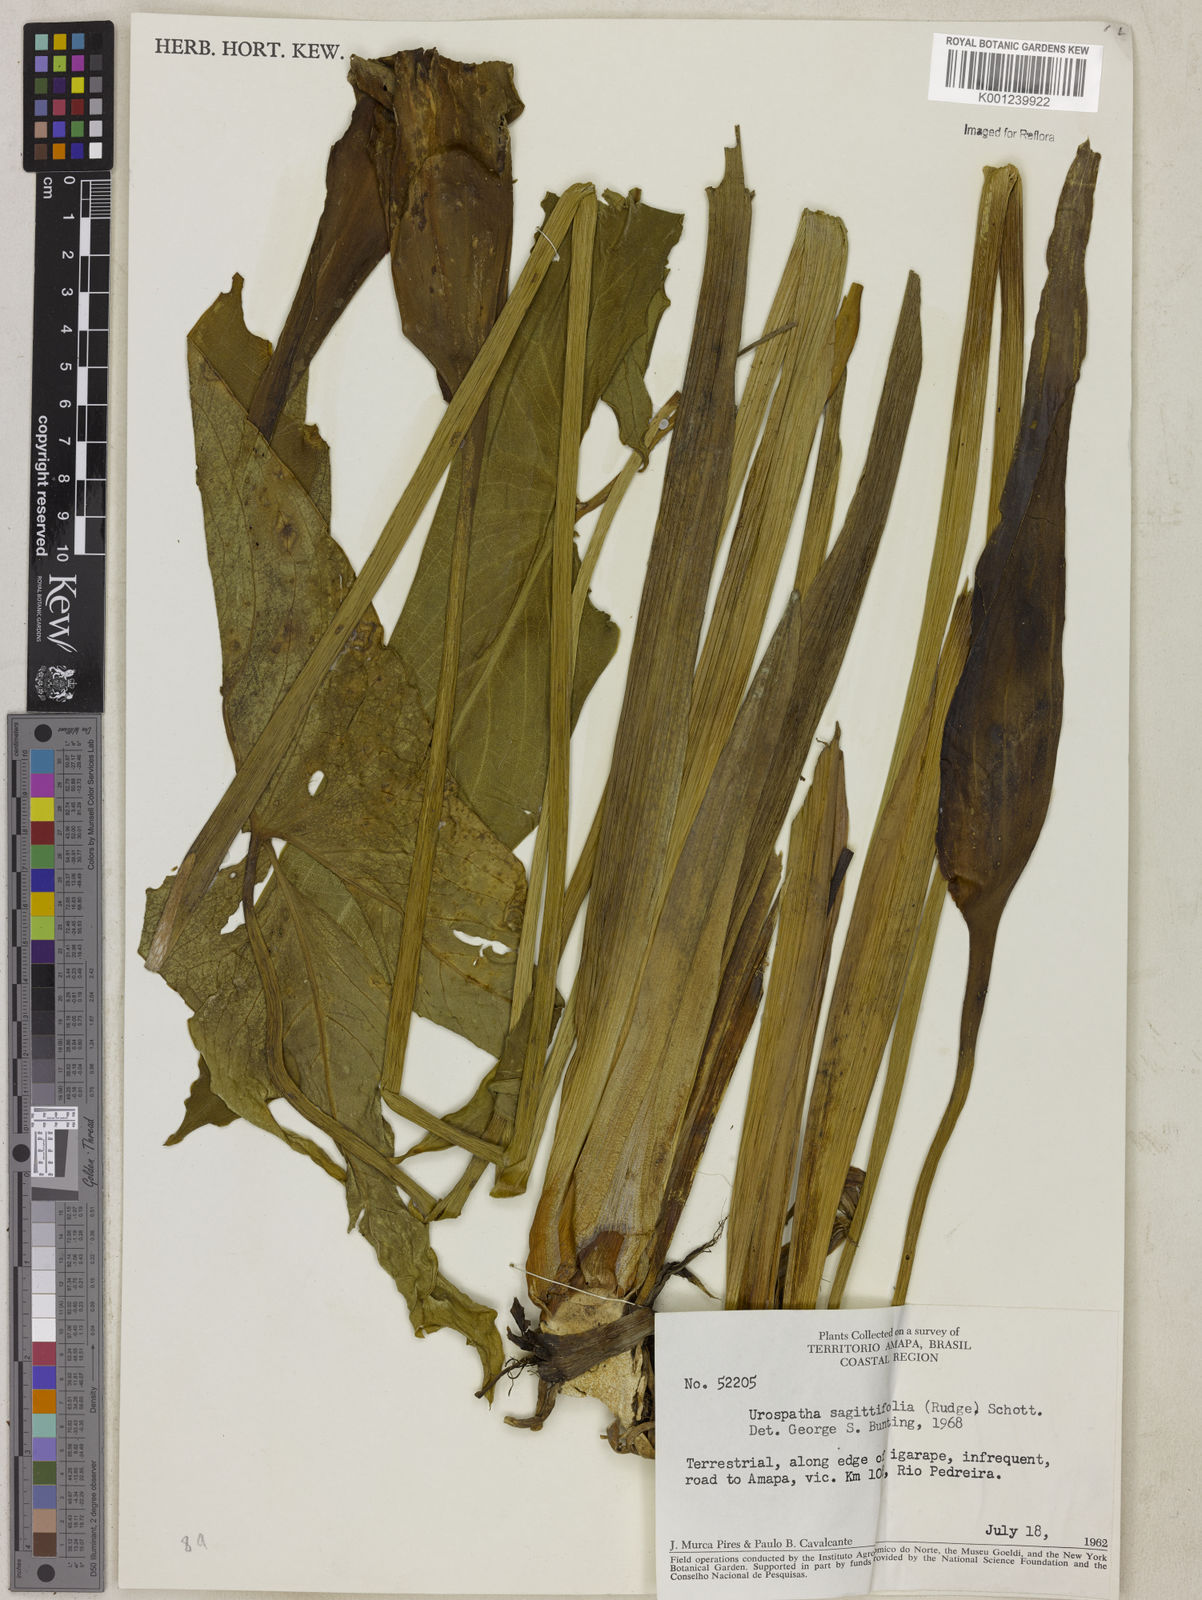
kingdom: Plantae
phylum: Tracheophyta
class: Liliopsida
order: Alismatales
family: Araceae
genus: Urospatha
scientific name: Urospatha sagittifolia
